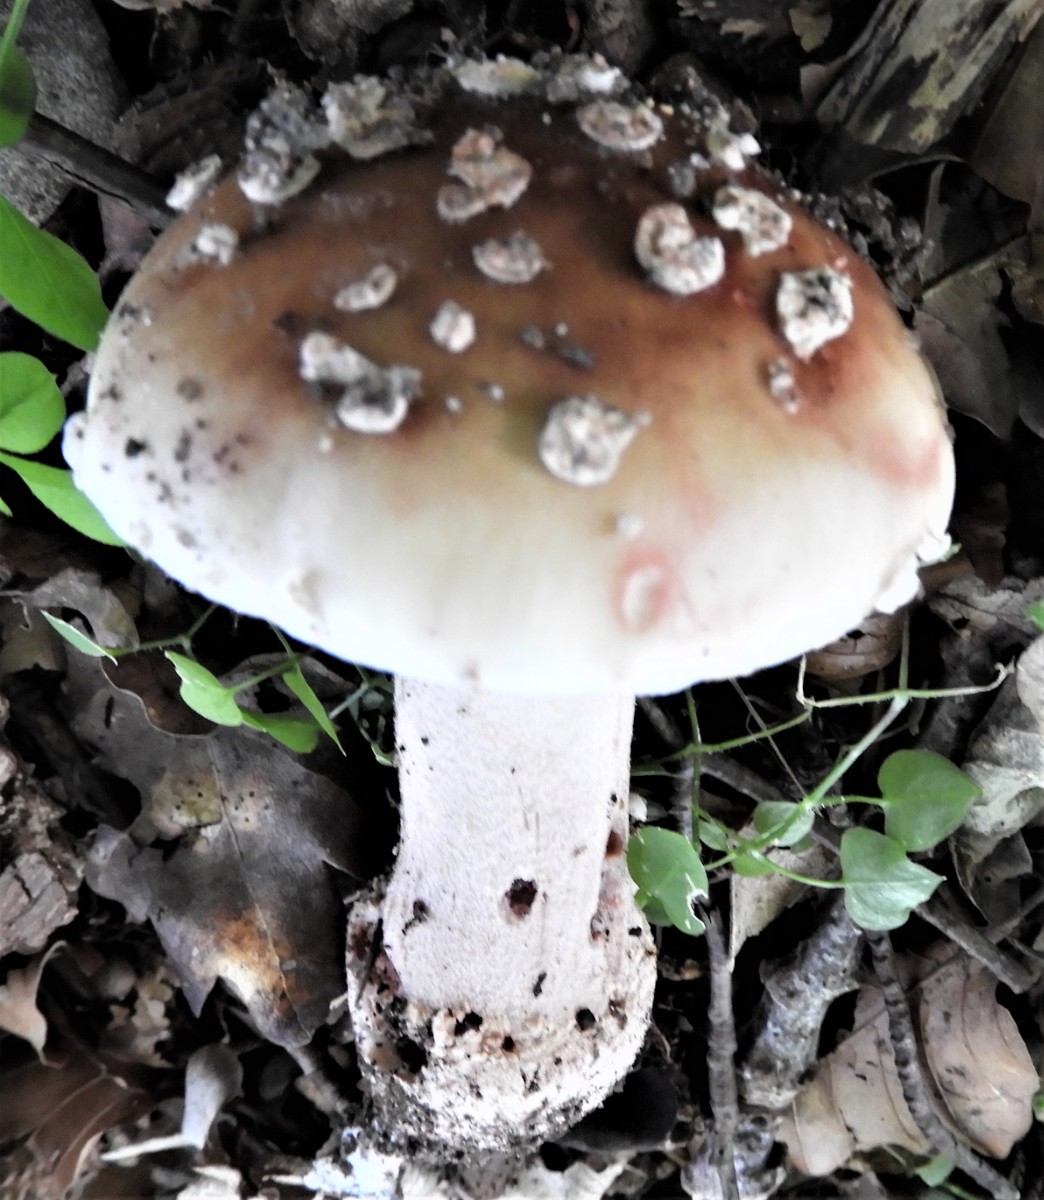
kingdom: Fungi
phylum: Basidiomycota
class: Agaricomycetes
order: Agaricales
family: Amanitaceae
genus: Amanita
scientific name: Amanita rubescens
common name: rødmende fluesvamp
